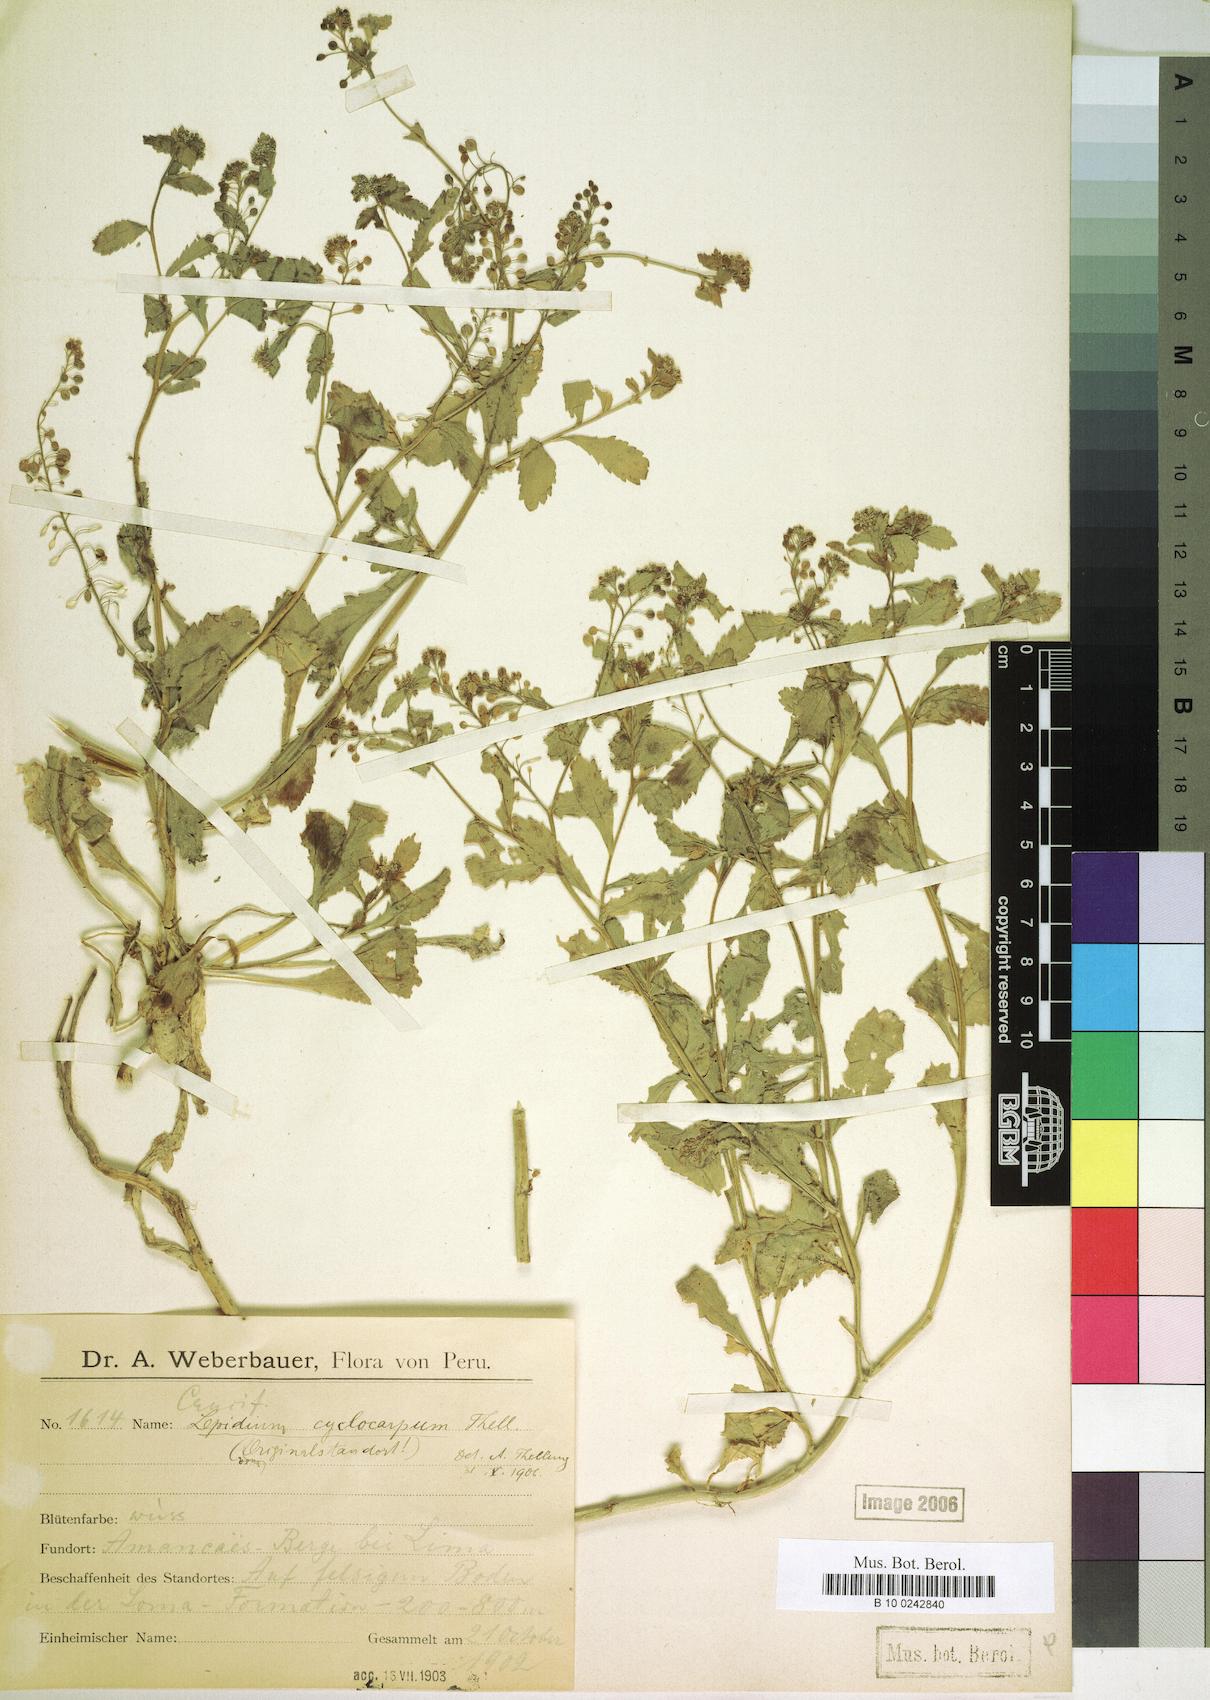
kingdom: Plantae
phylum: Tracheophyta
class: Magnoliopsida
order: Brassicales
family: Brassicaceae
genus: Lepidium
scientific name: Lepidium cyclocarpum
